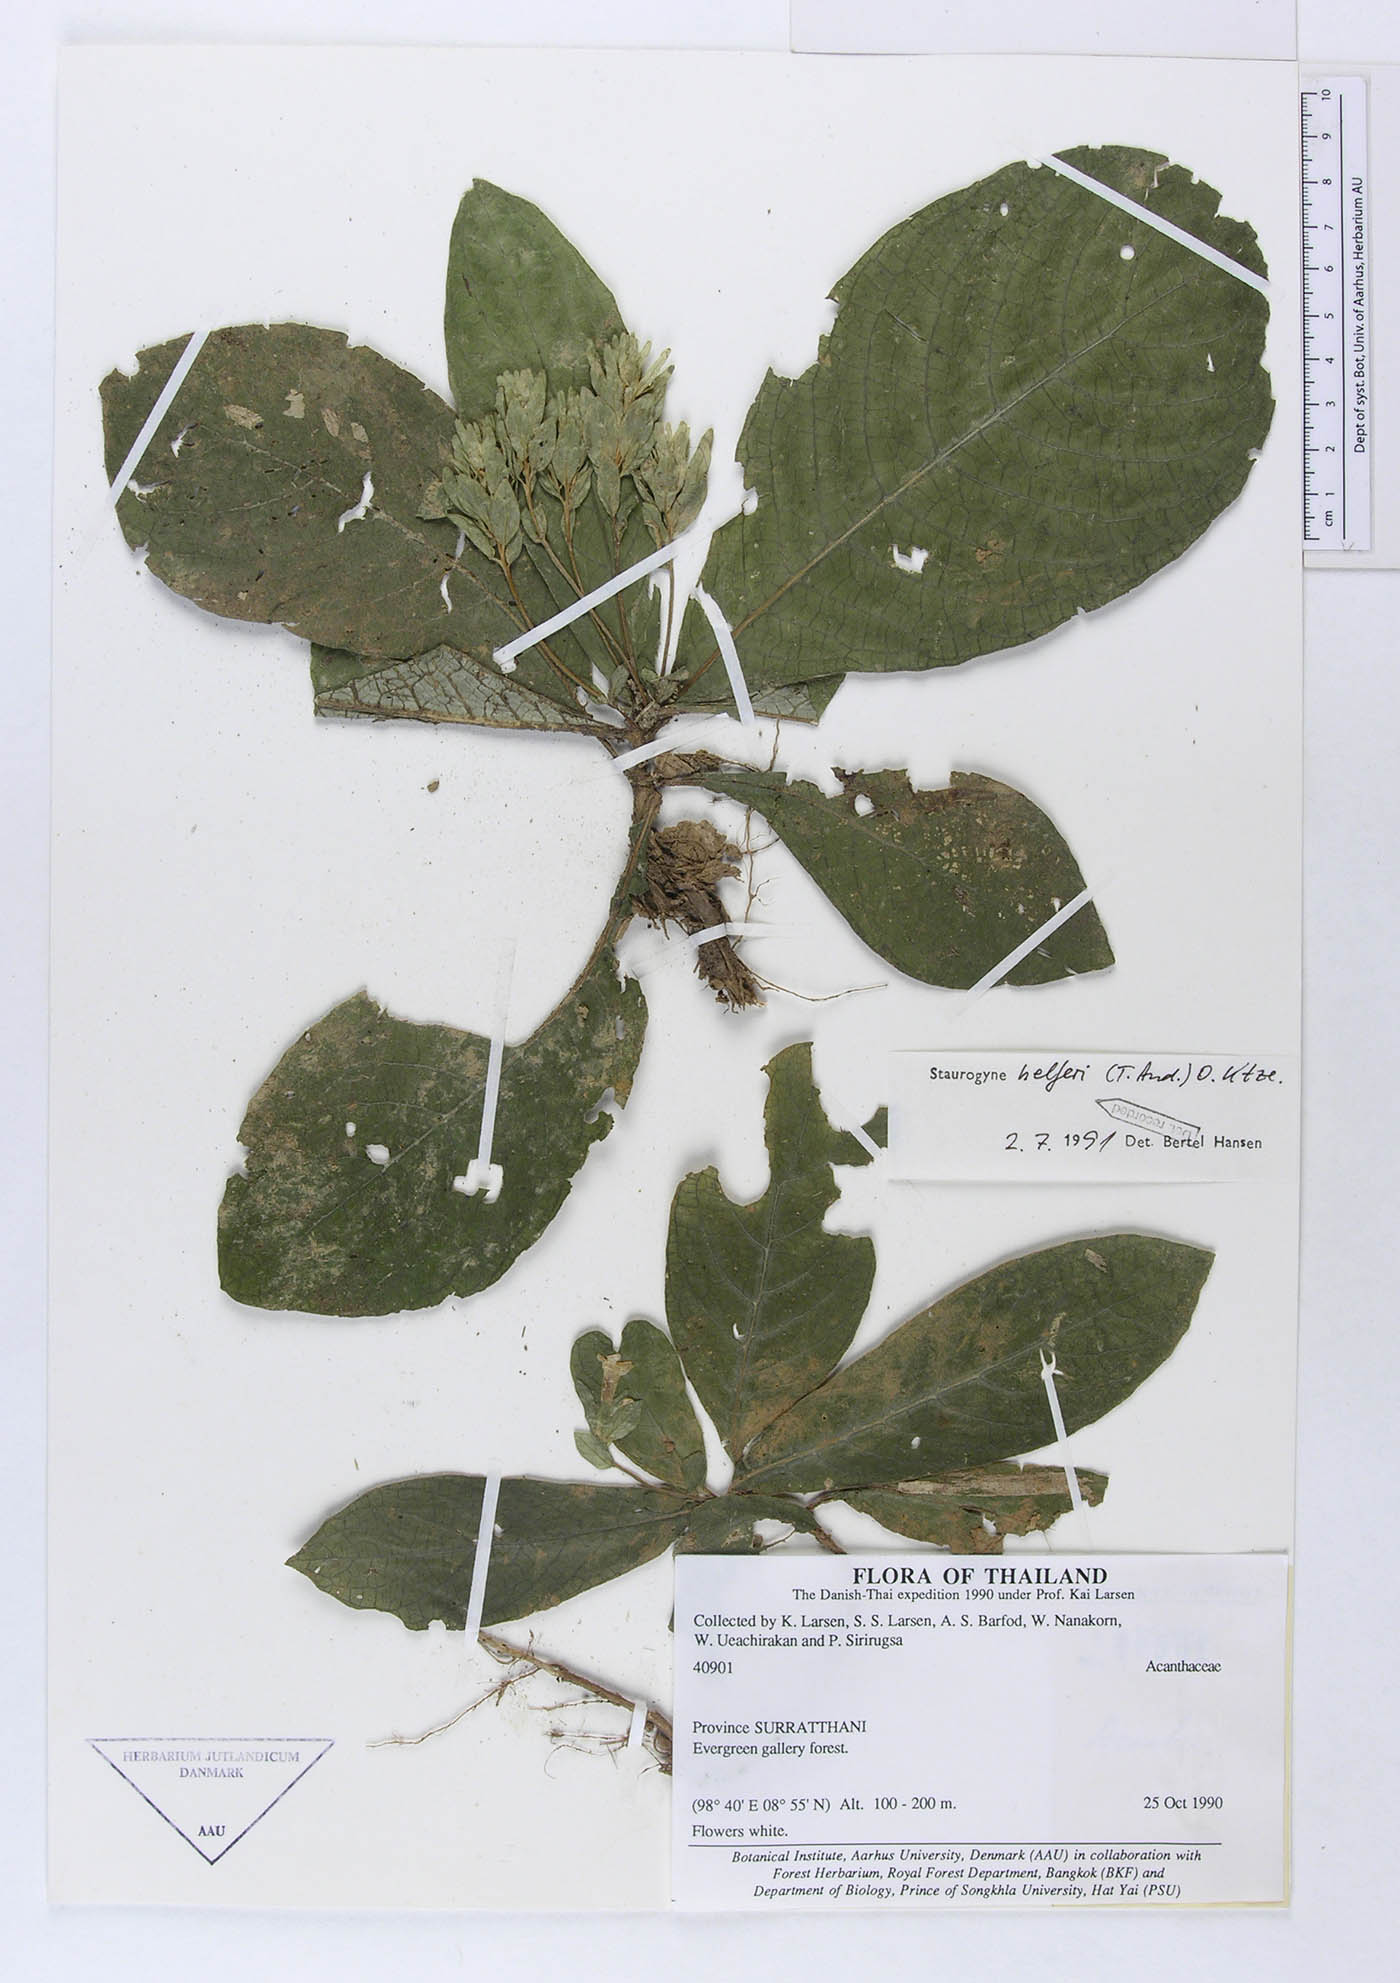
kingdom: Plantae
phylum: Tracheophyta
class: Magnoliopsida
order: Lamiales
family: Acanthaceae
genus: Staurogyne
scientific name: Staurogyne helferi
